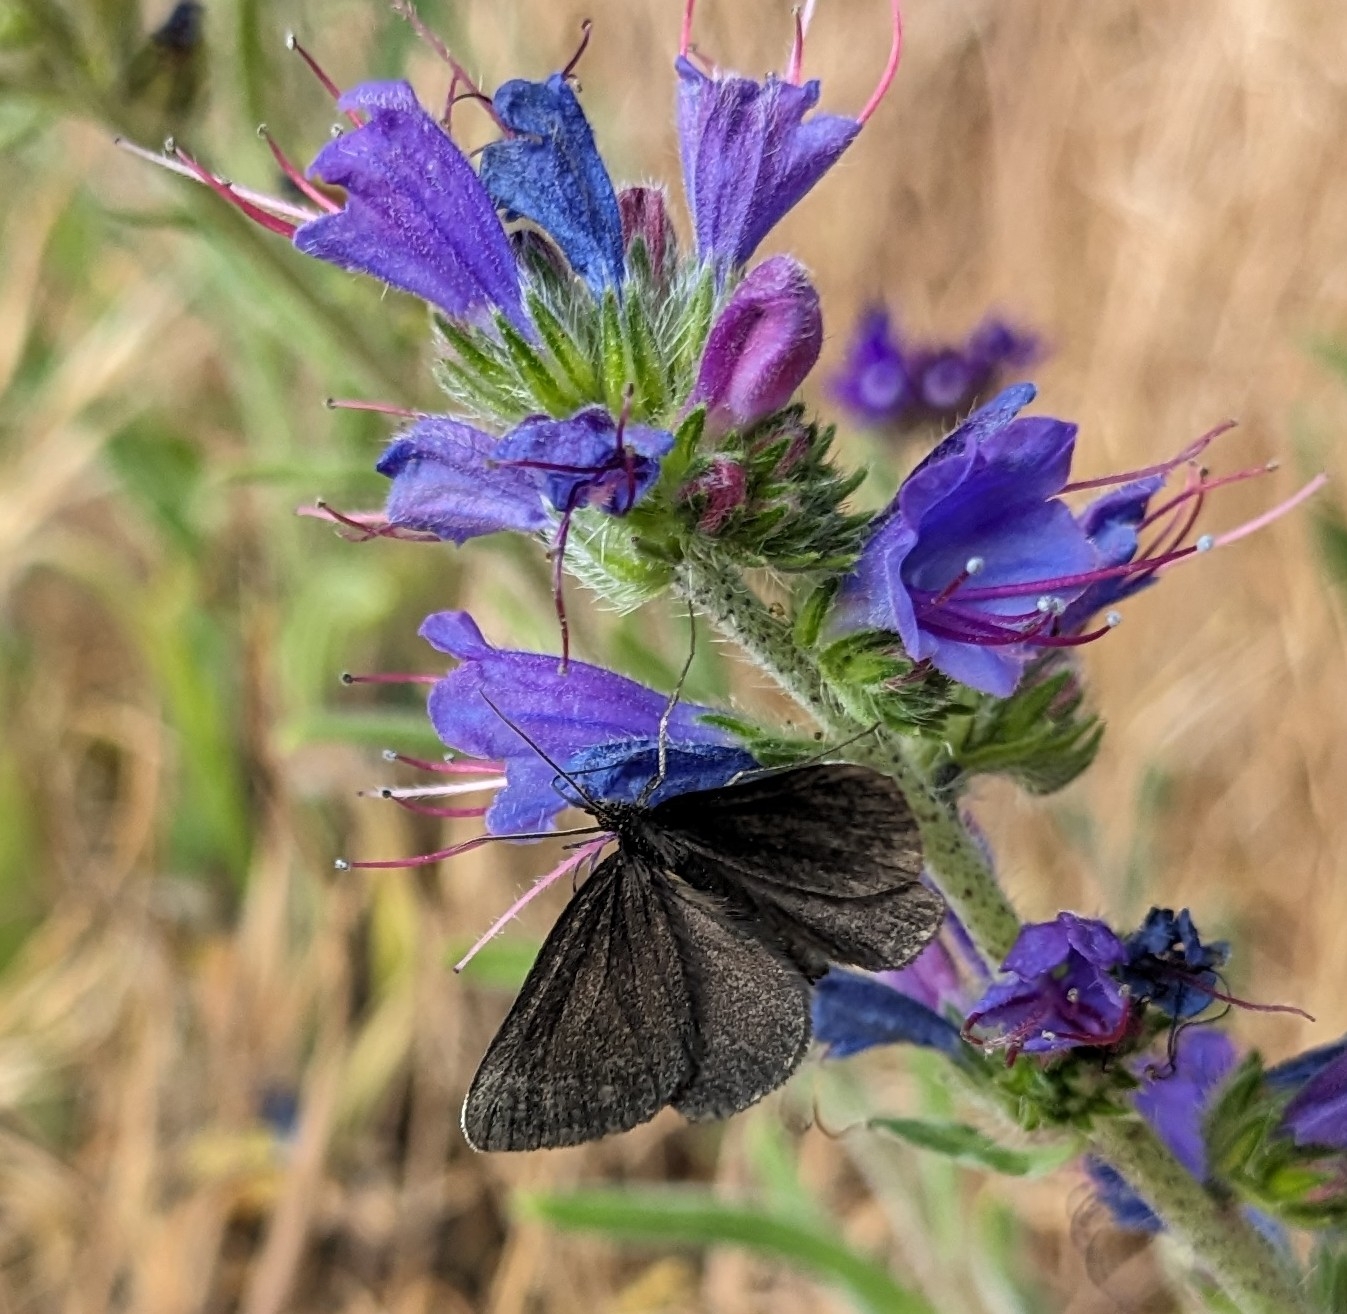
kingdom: Animalia
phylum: Arthropoda
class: Insecta
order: Lepidoptera
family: Geometridae
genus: Odezia
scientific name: Odezia atrata
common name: Sort måler
